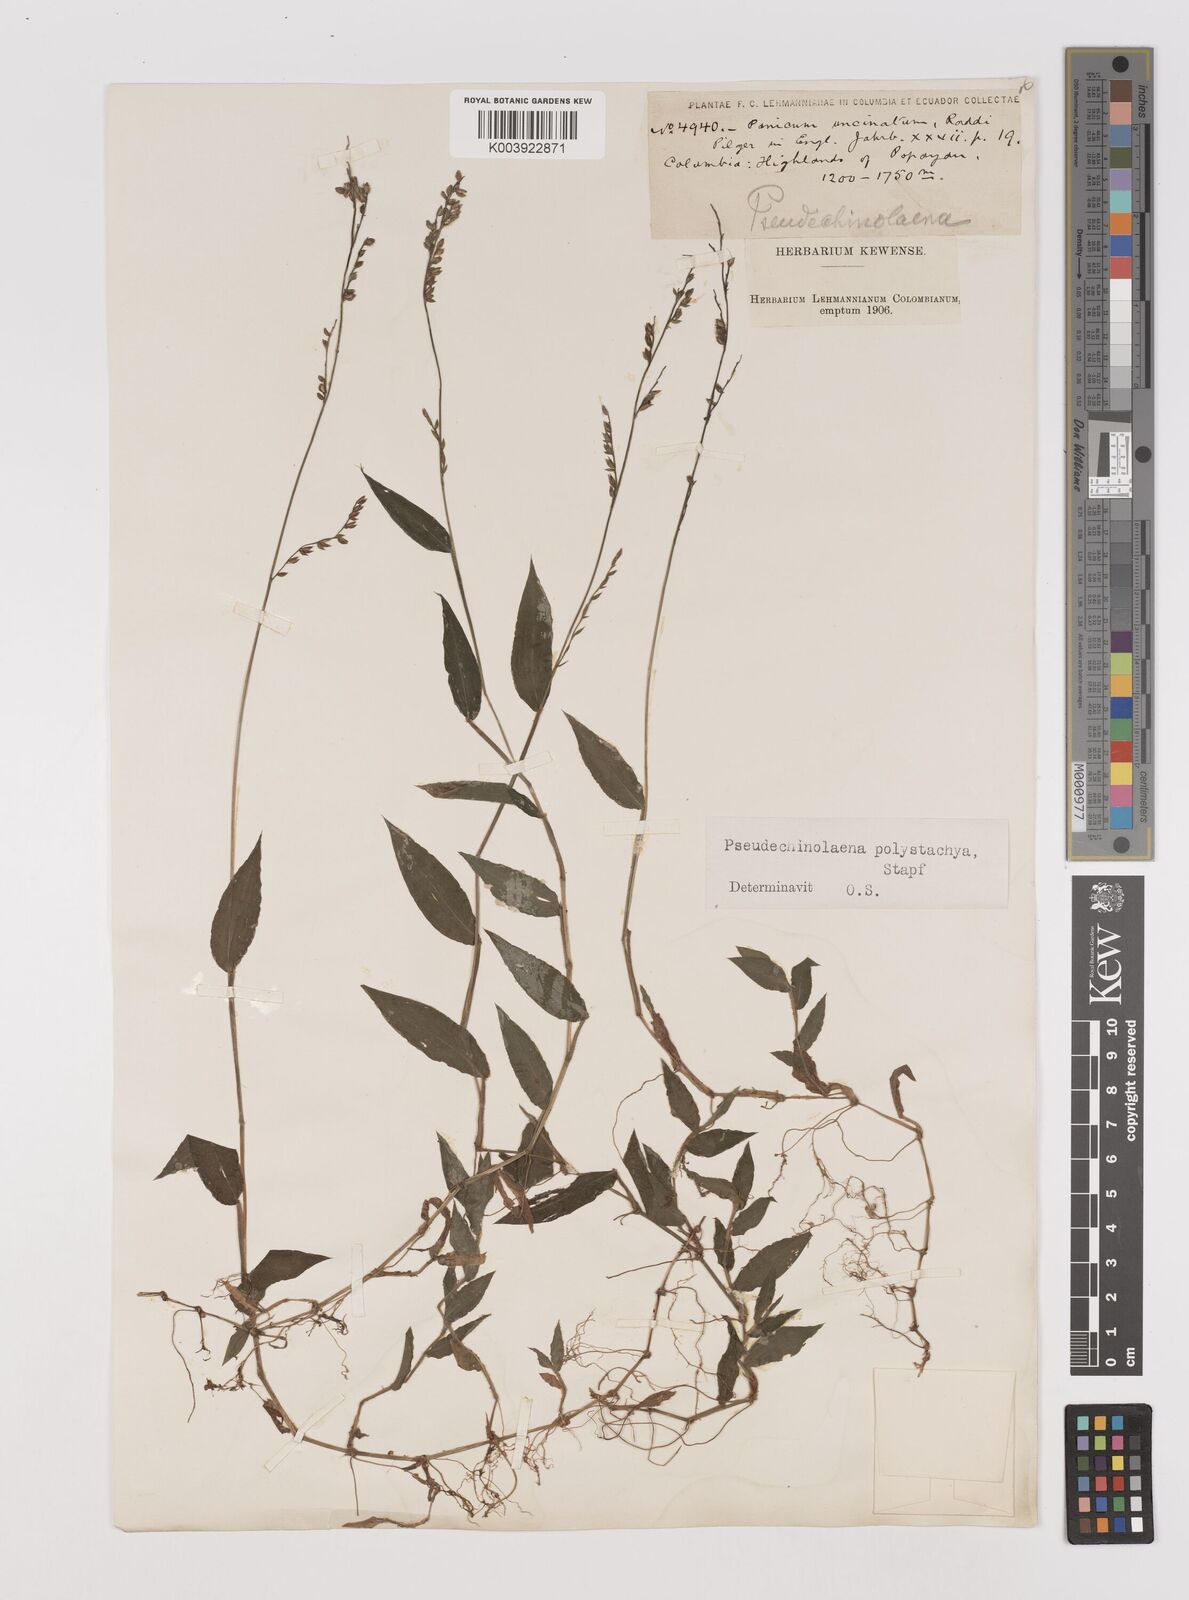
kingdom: Plantae
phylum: Tracheophyta
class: Liliopsida
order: Poales
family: Poaceae
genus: Pseudechinolaena
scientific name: Pseudechinolaena polystachya
